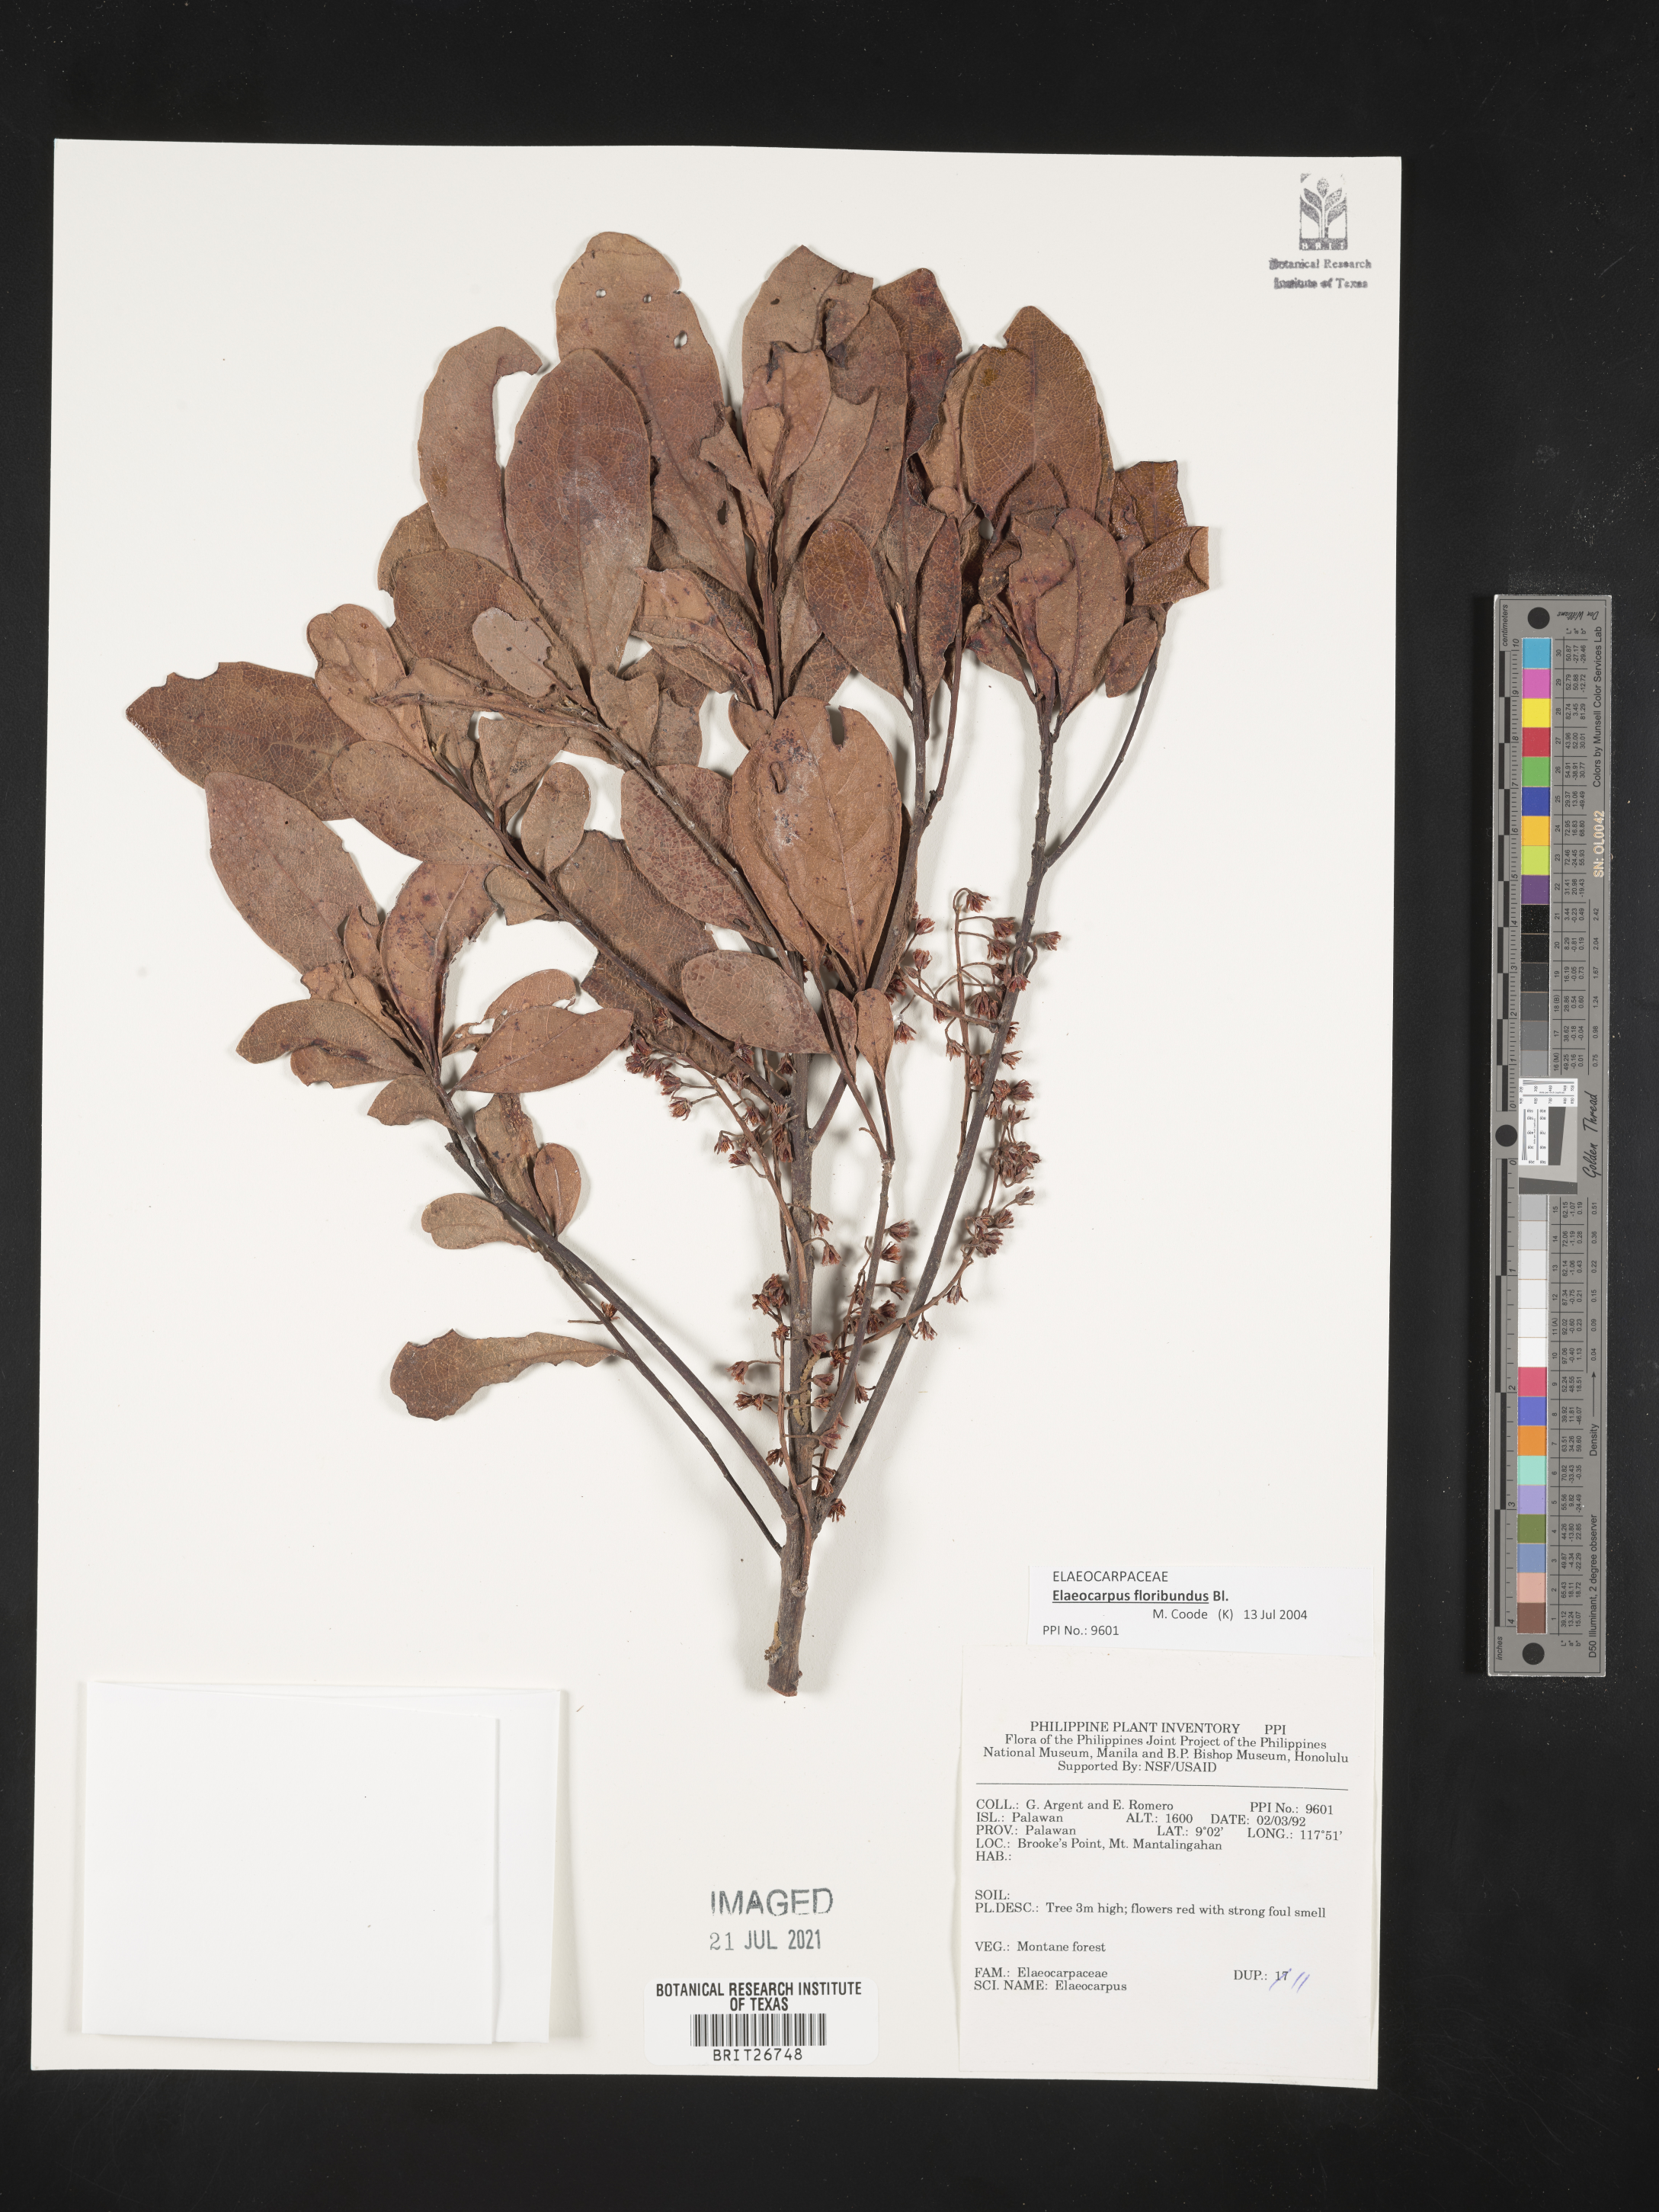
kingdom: Plantae
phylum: Tracheophyta
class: Magnoliopsida
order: Oxalidales
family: Elaeocarpaceae
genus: Elaeocarpus
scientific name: Elaeocarpus
